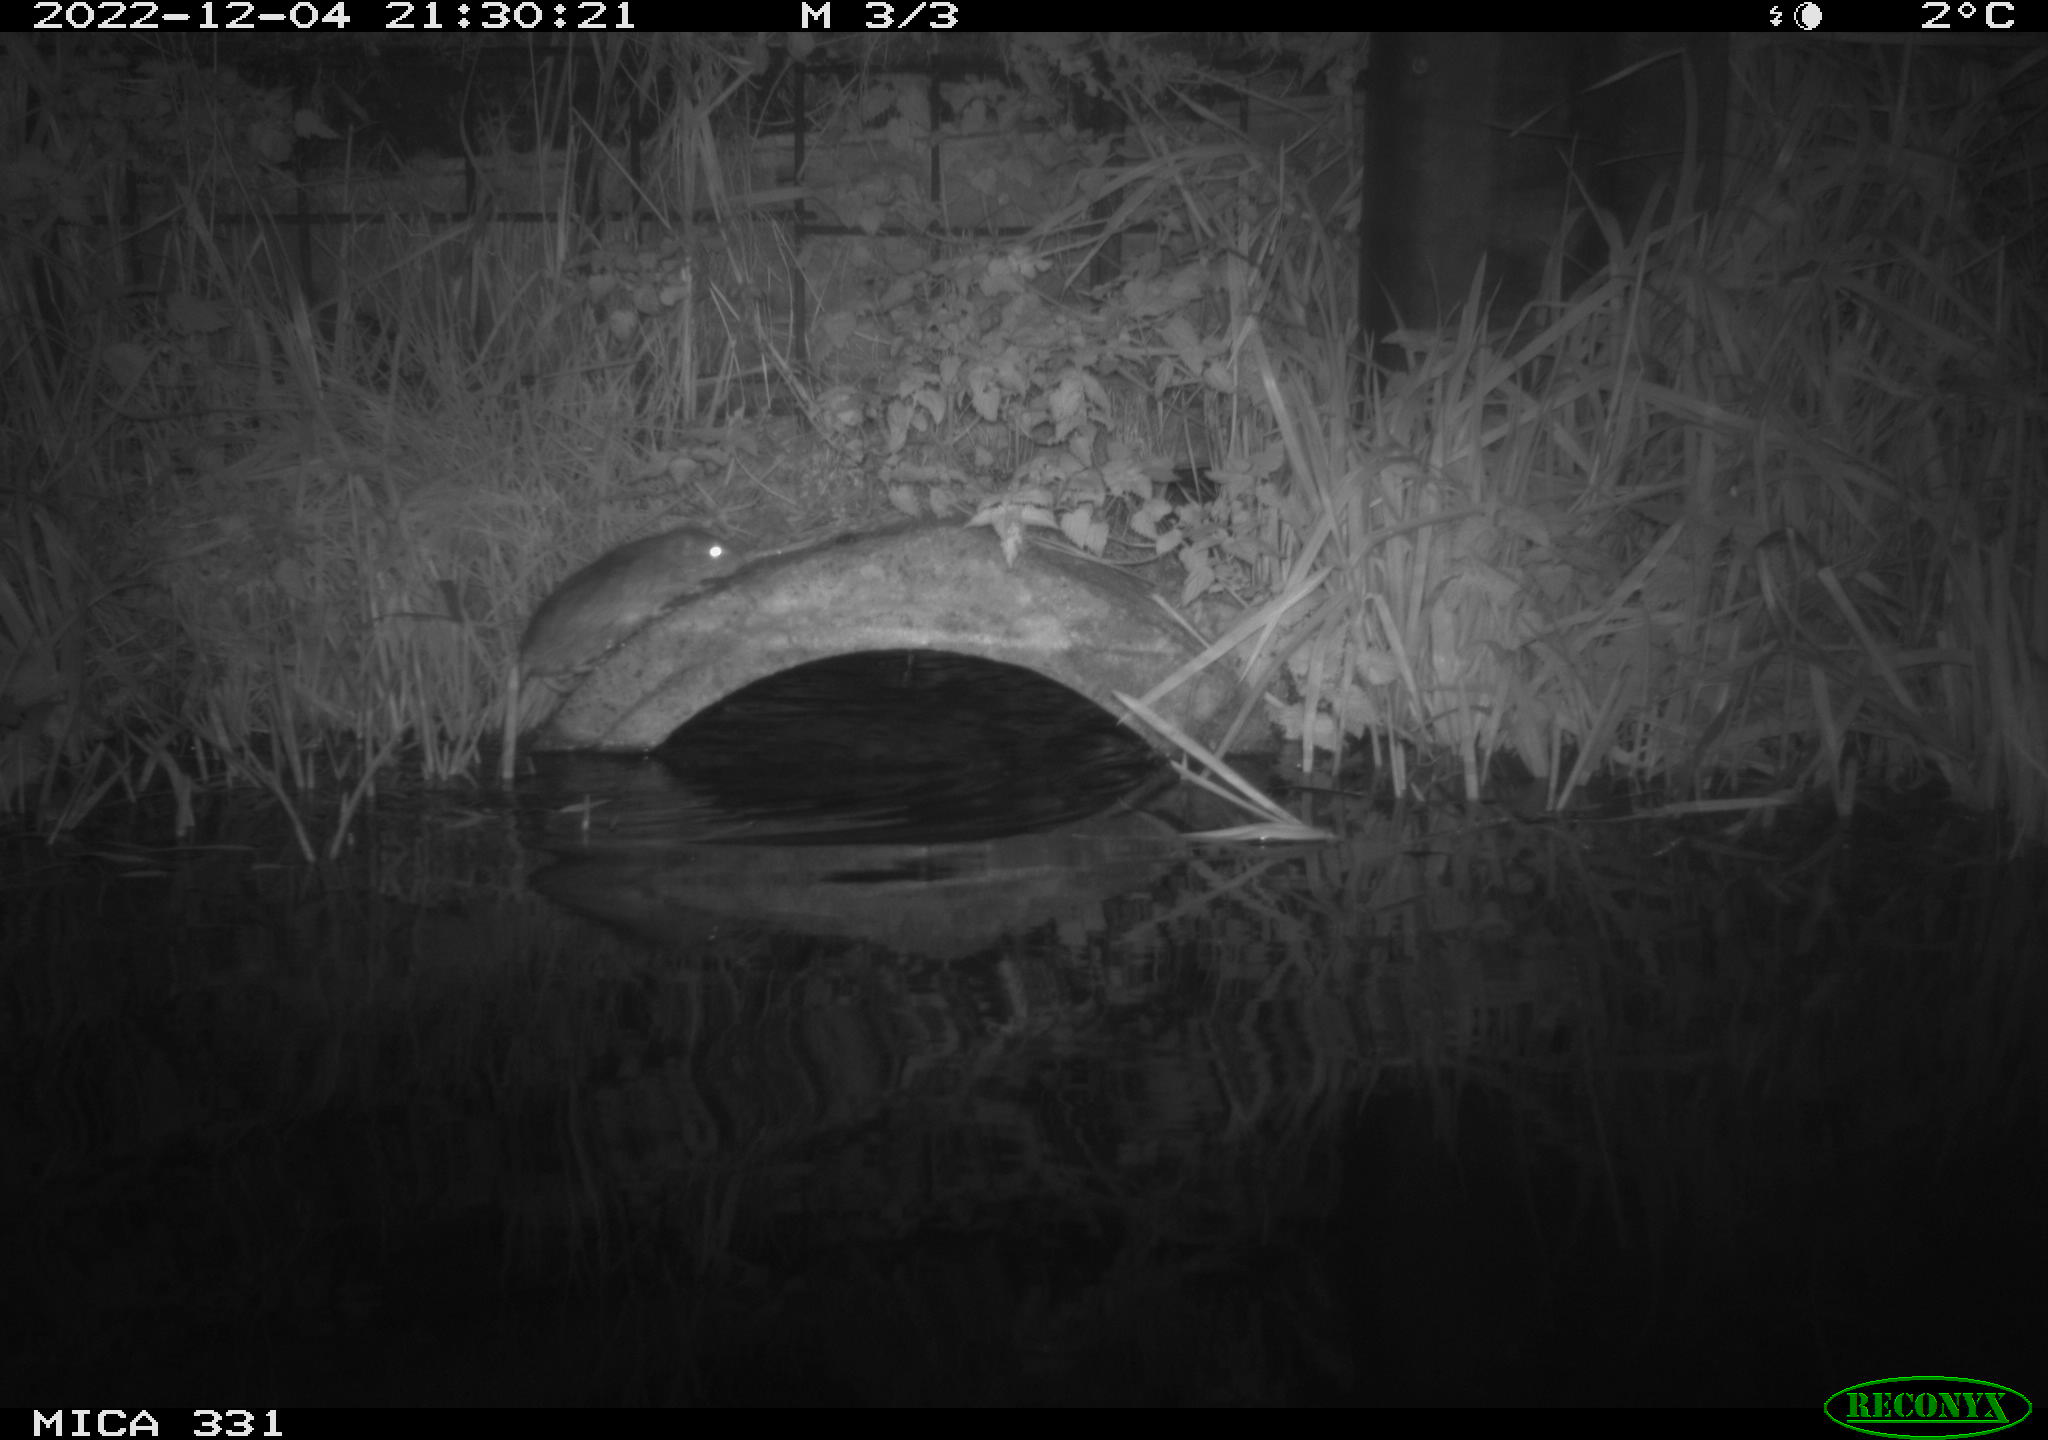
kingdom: Animalia
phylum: Chordata
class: Mammalia
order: Rodentia
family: Muridae
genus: Rattus
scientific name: Rattus norvegicus
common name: Brown rat
